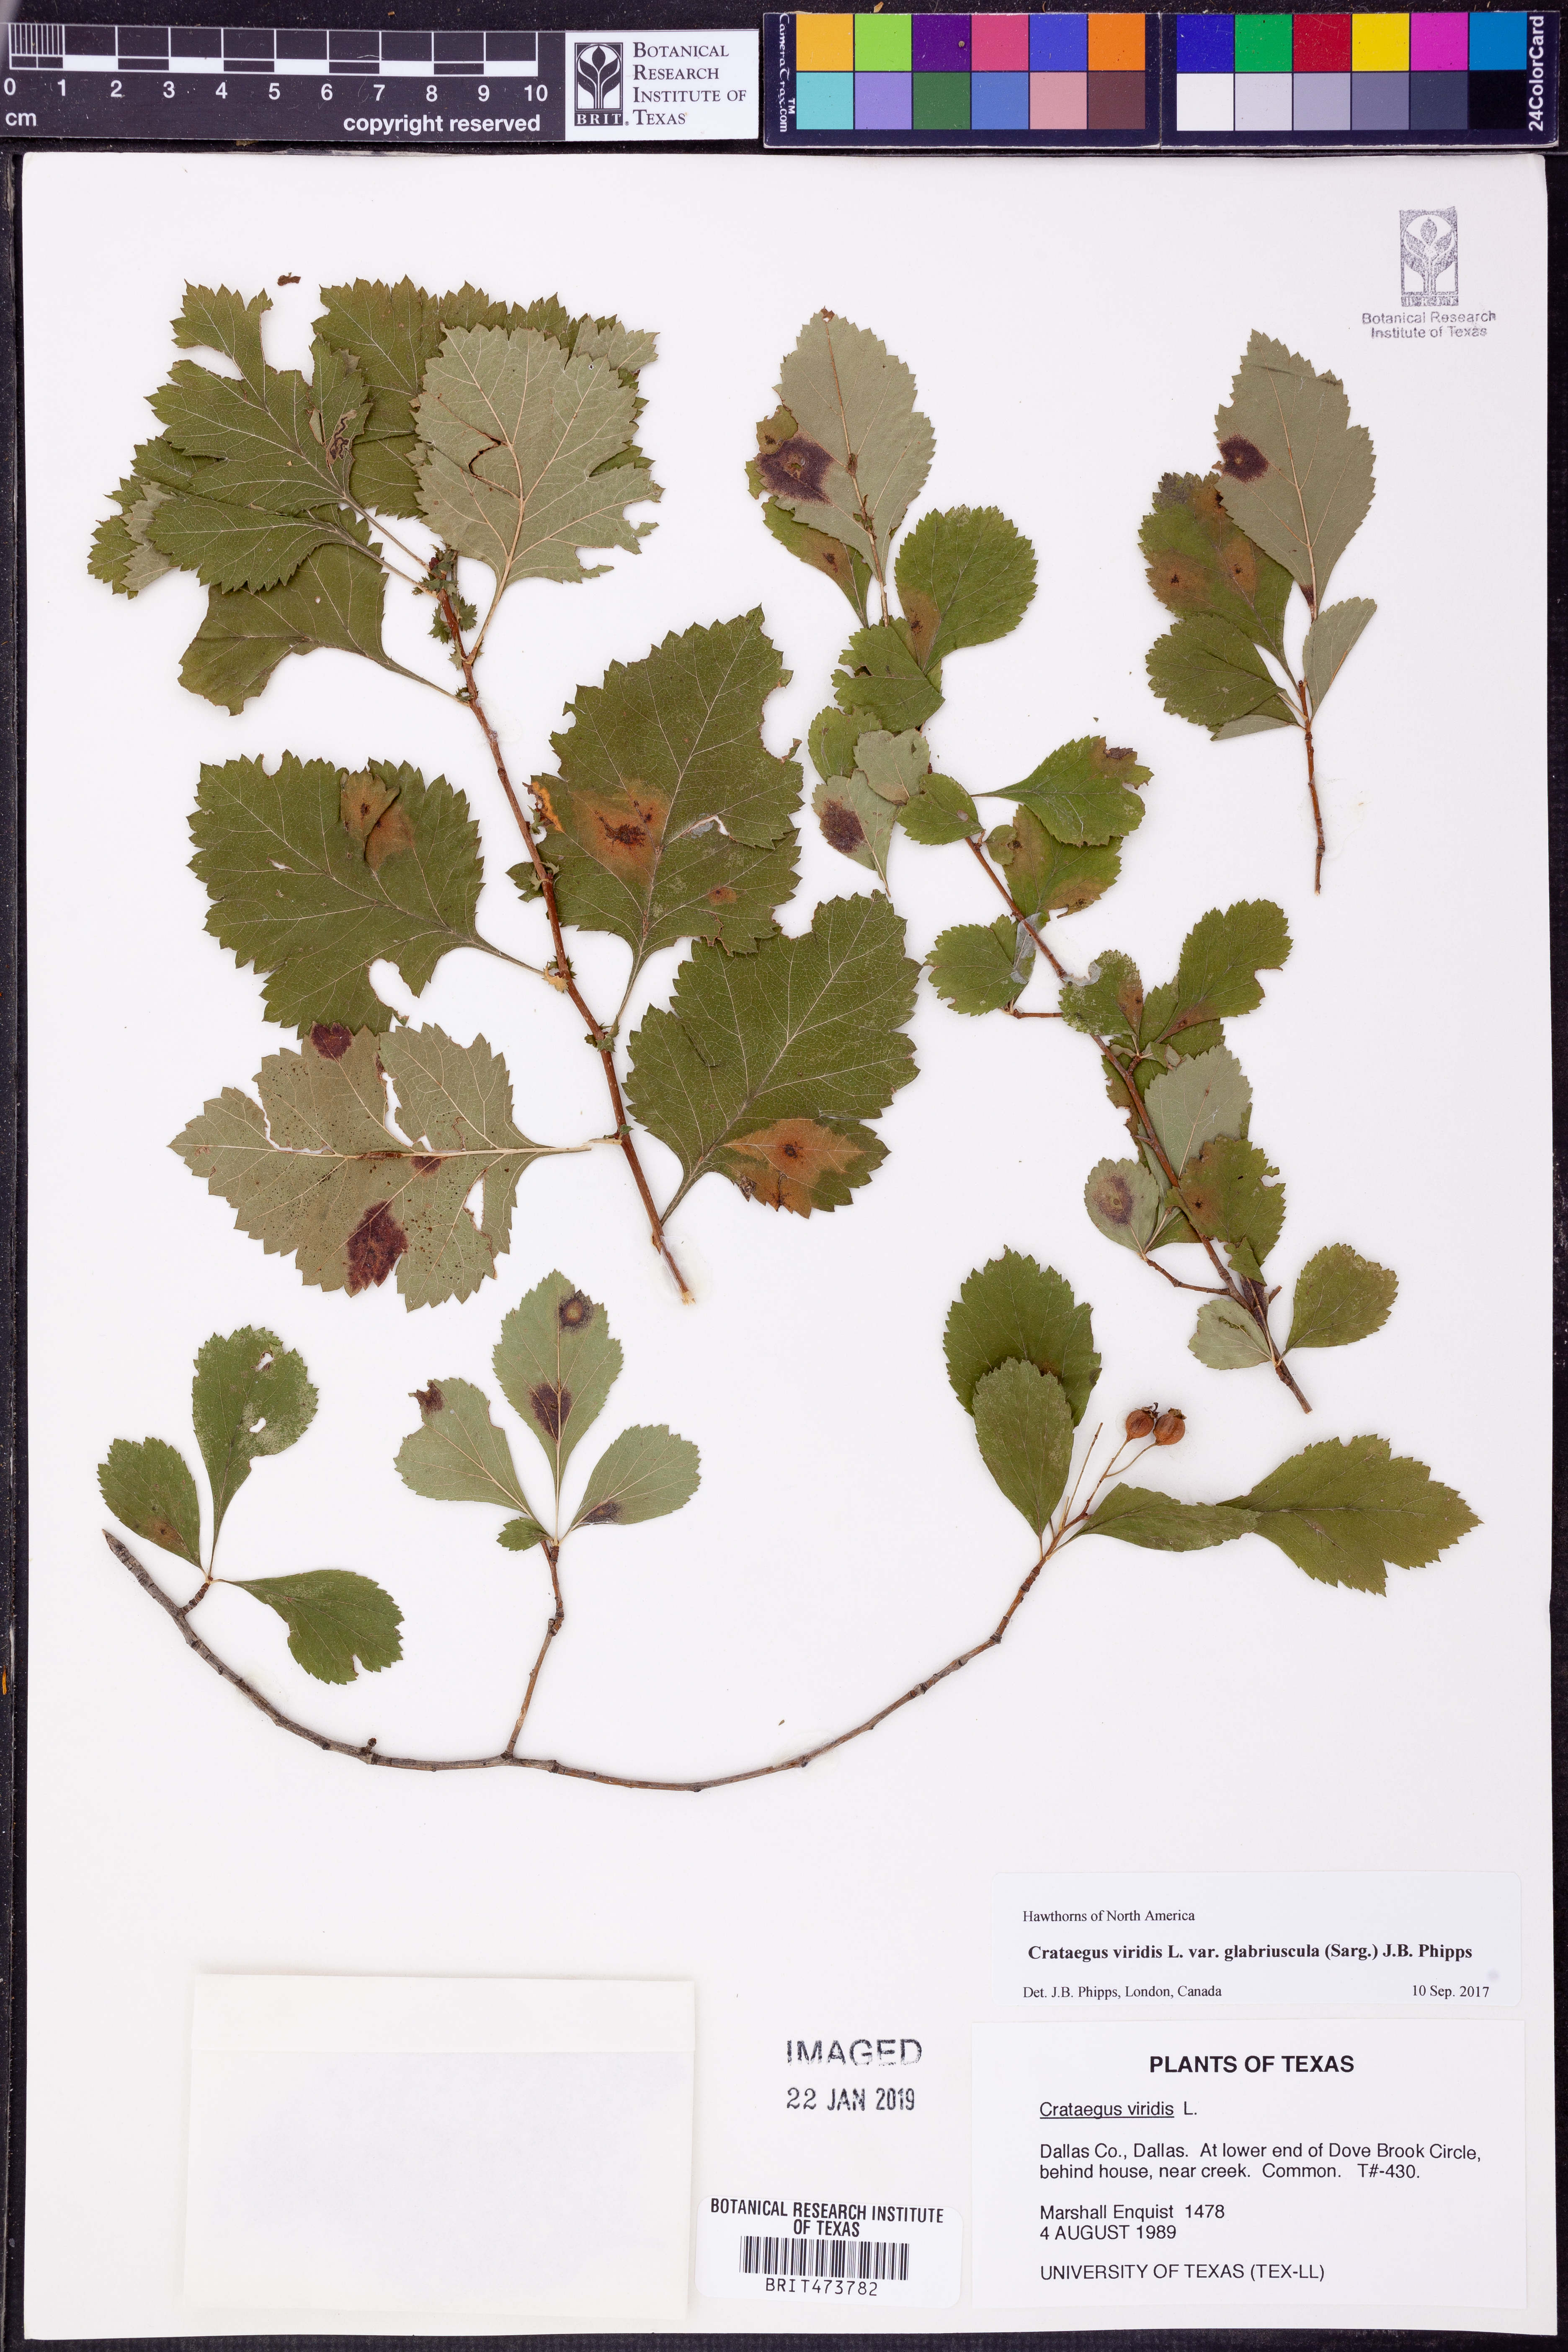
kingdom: Plantae
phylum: Tracheophyta
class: Magnoliopsida
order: Rosales
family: Rosaceae
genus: Crataegus
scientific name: Crataegus viridis
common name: Southernthorn
